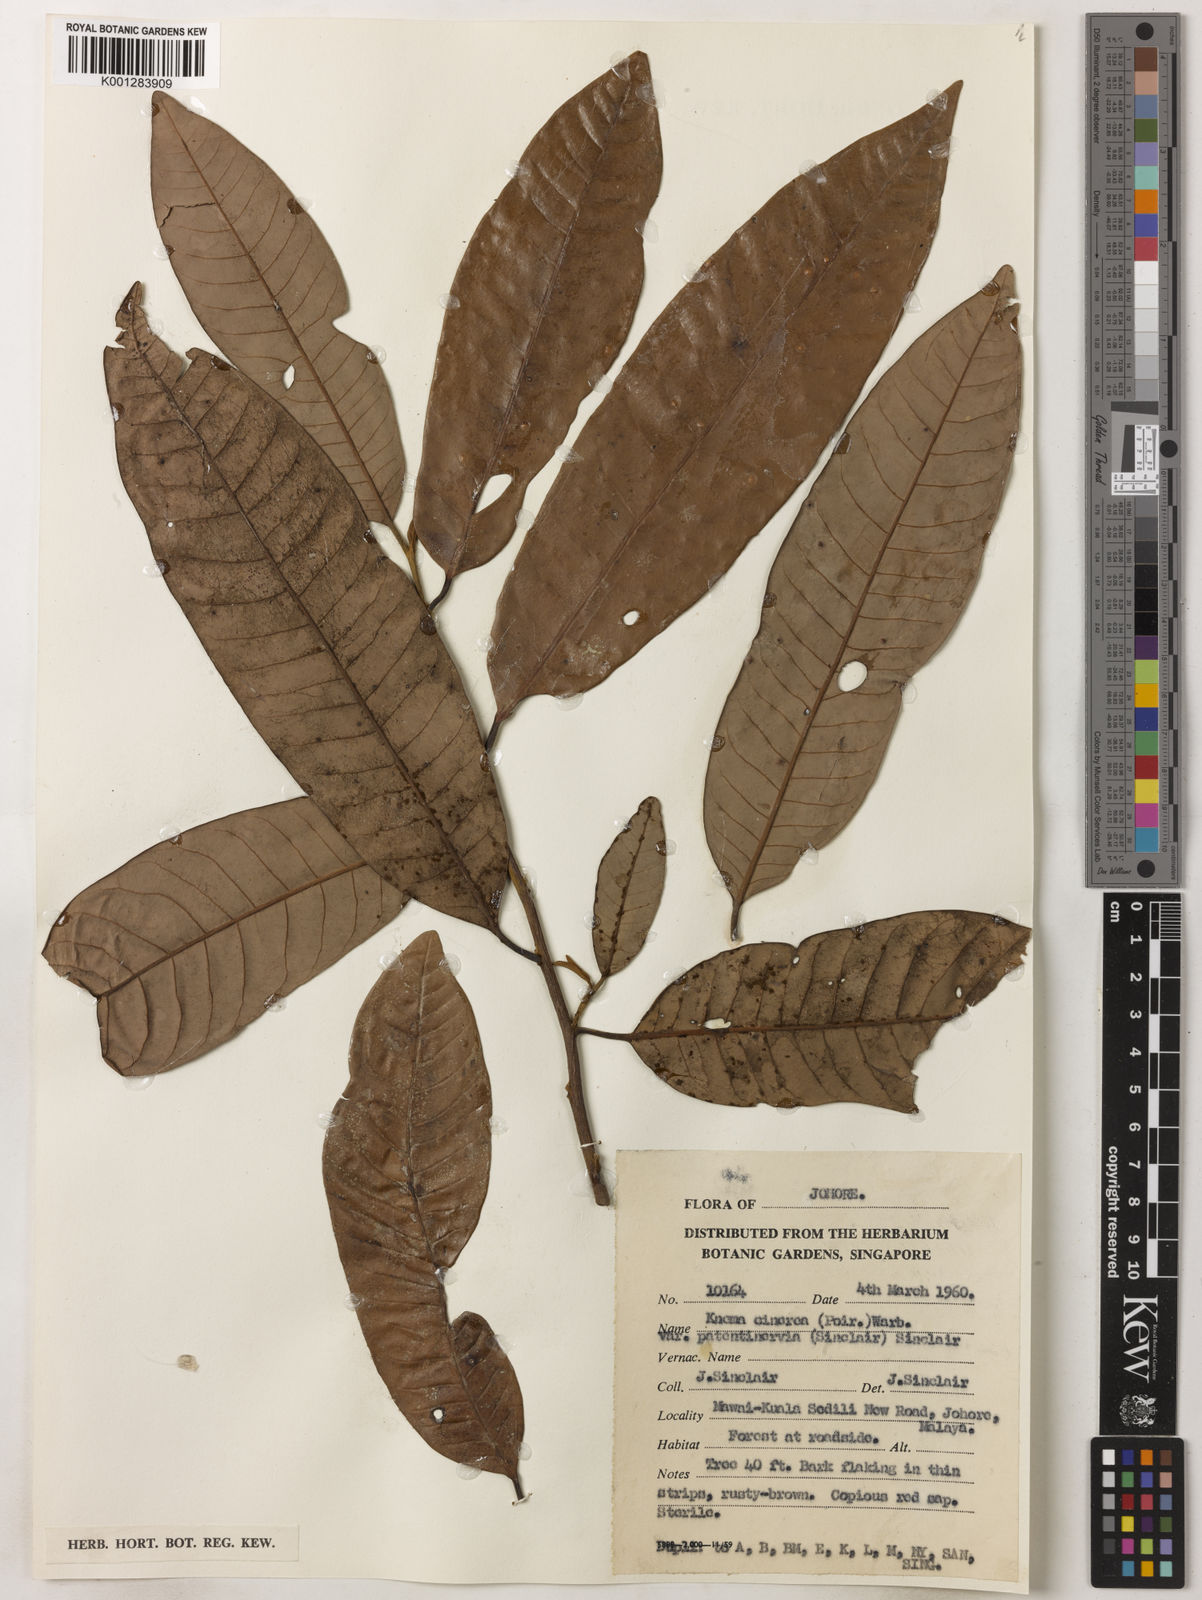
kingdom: Plantae
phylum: Tracheophyta
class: Magnoliopsida
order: Magnoliales
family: Myristicaceae
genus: Knema
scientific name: Knema
